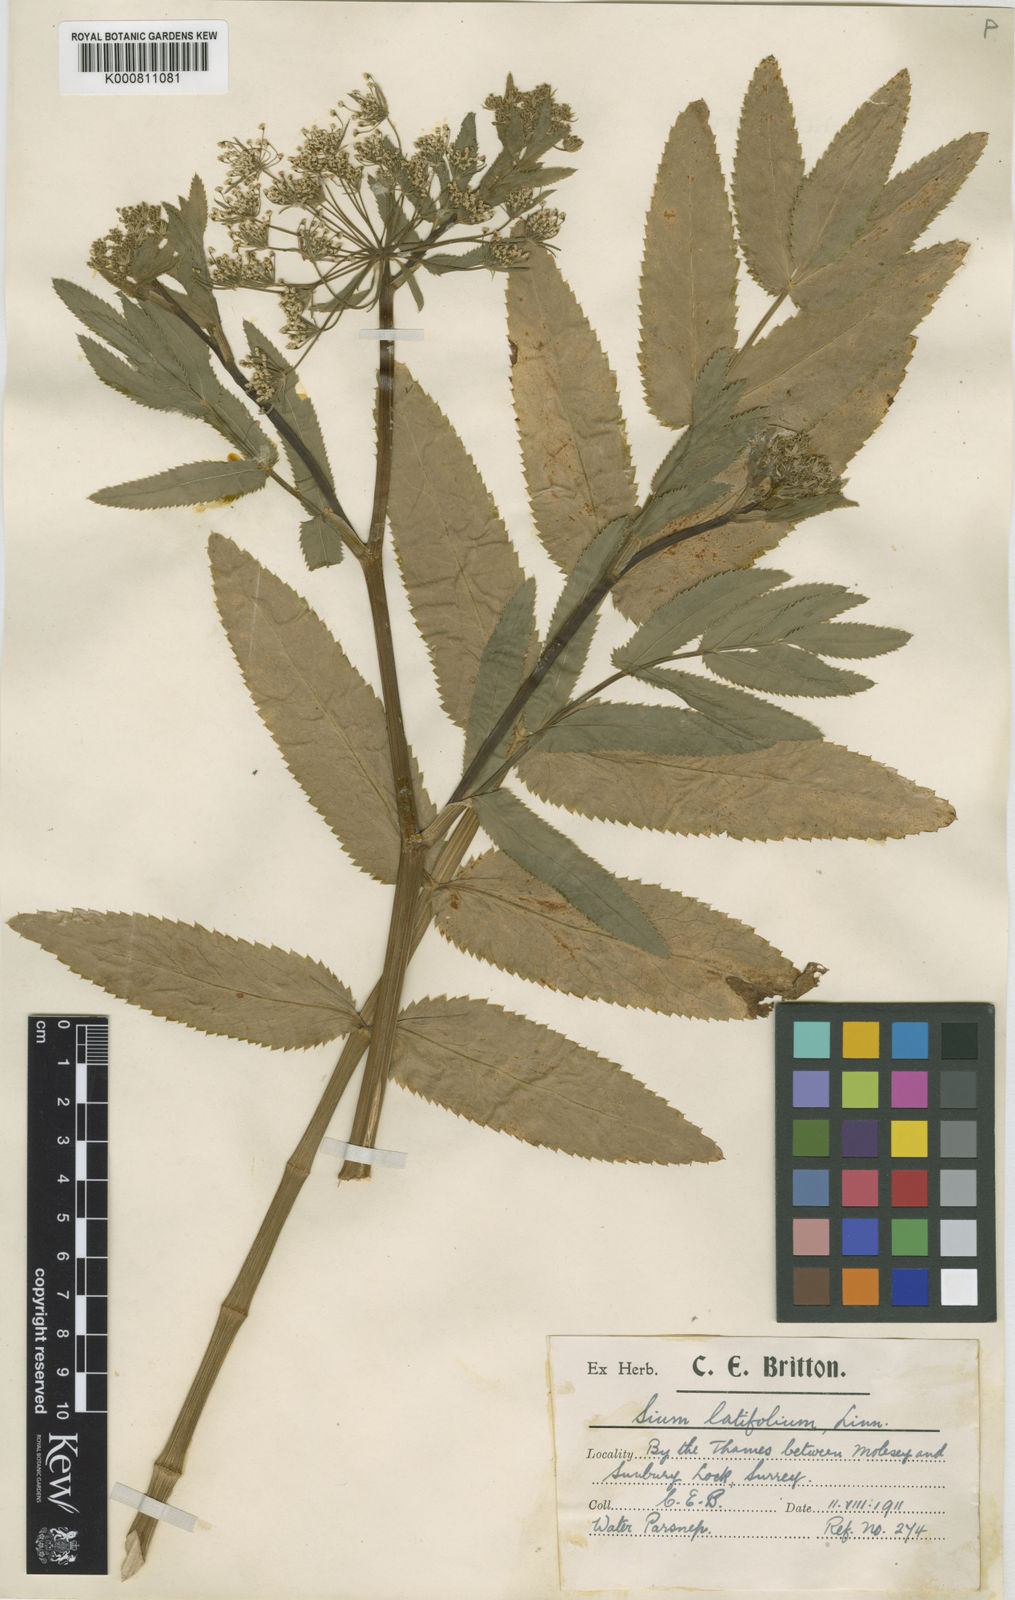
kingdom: Plantae
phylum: Tracheophyta
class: Magnoliopsida
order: Apiales
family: Apiaceae
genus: Sium
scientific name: Sium latifolium
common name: Greater water-parsnip
